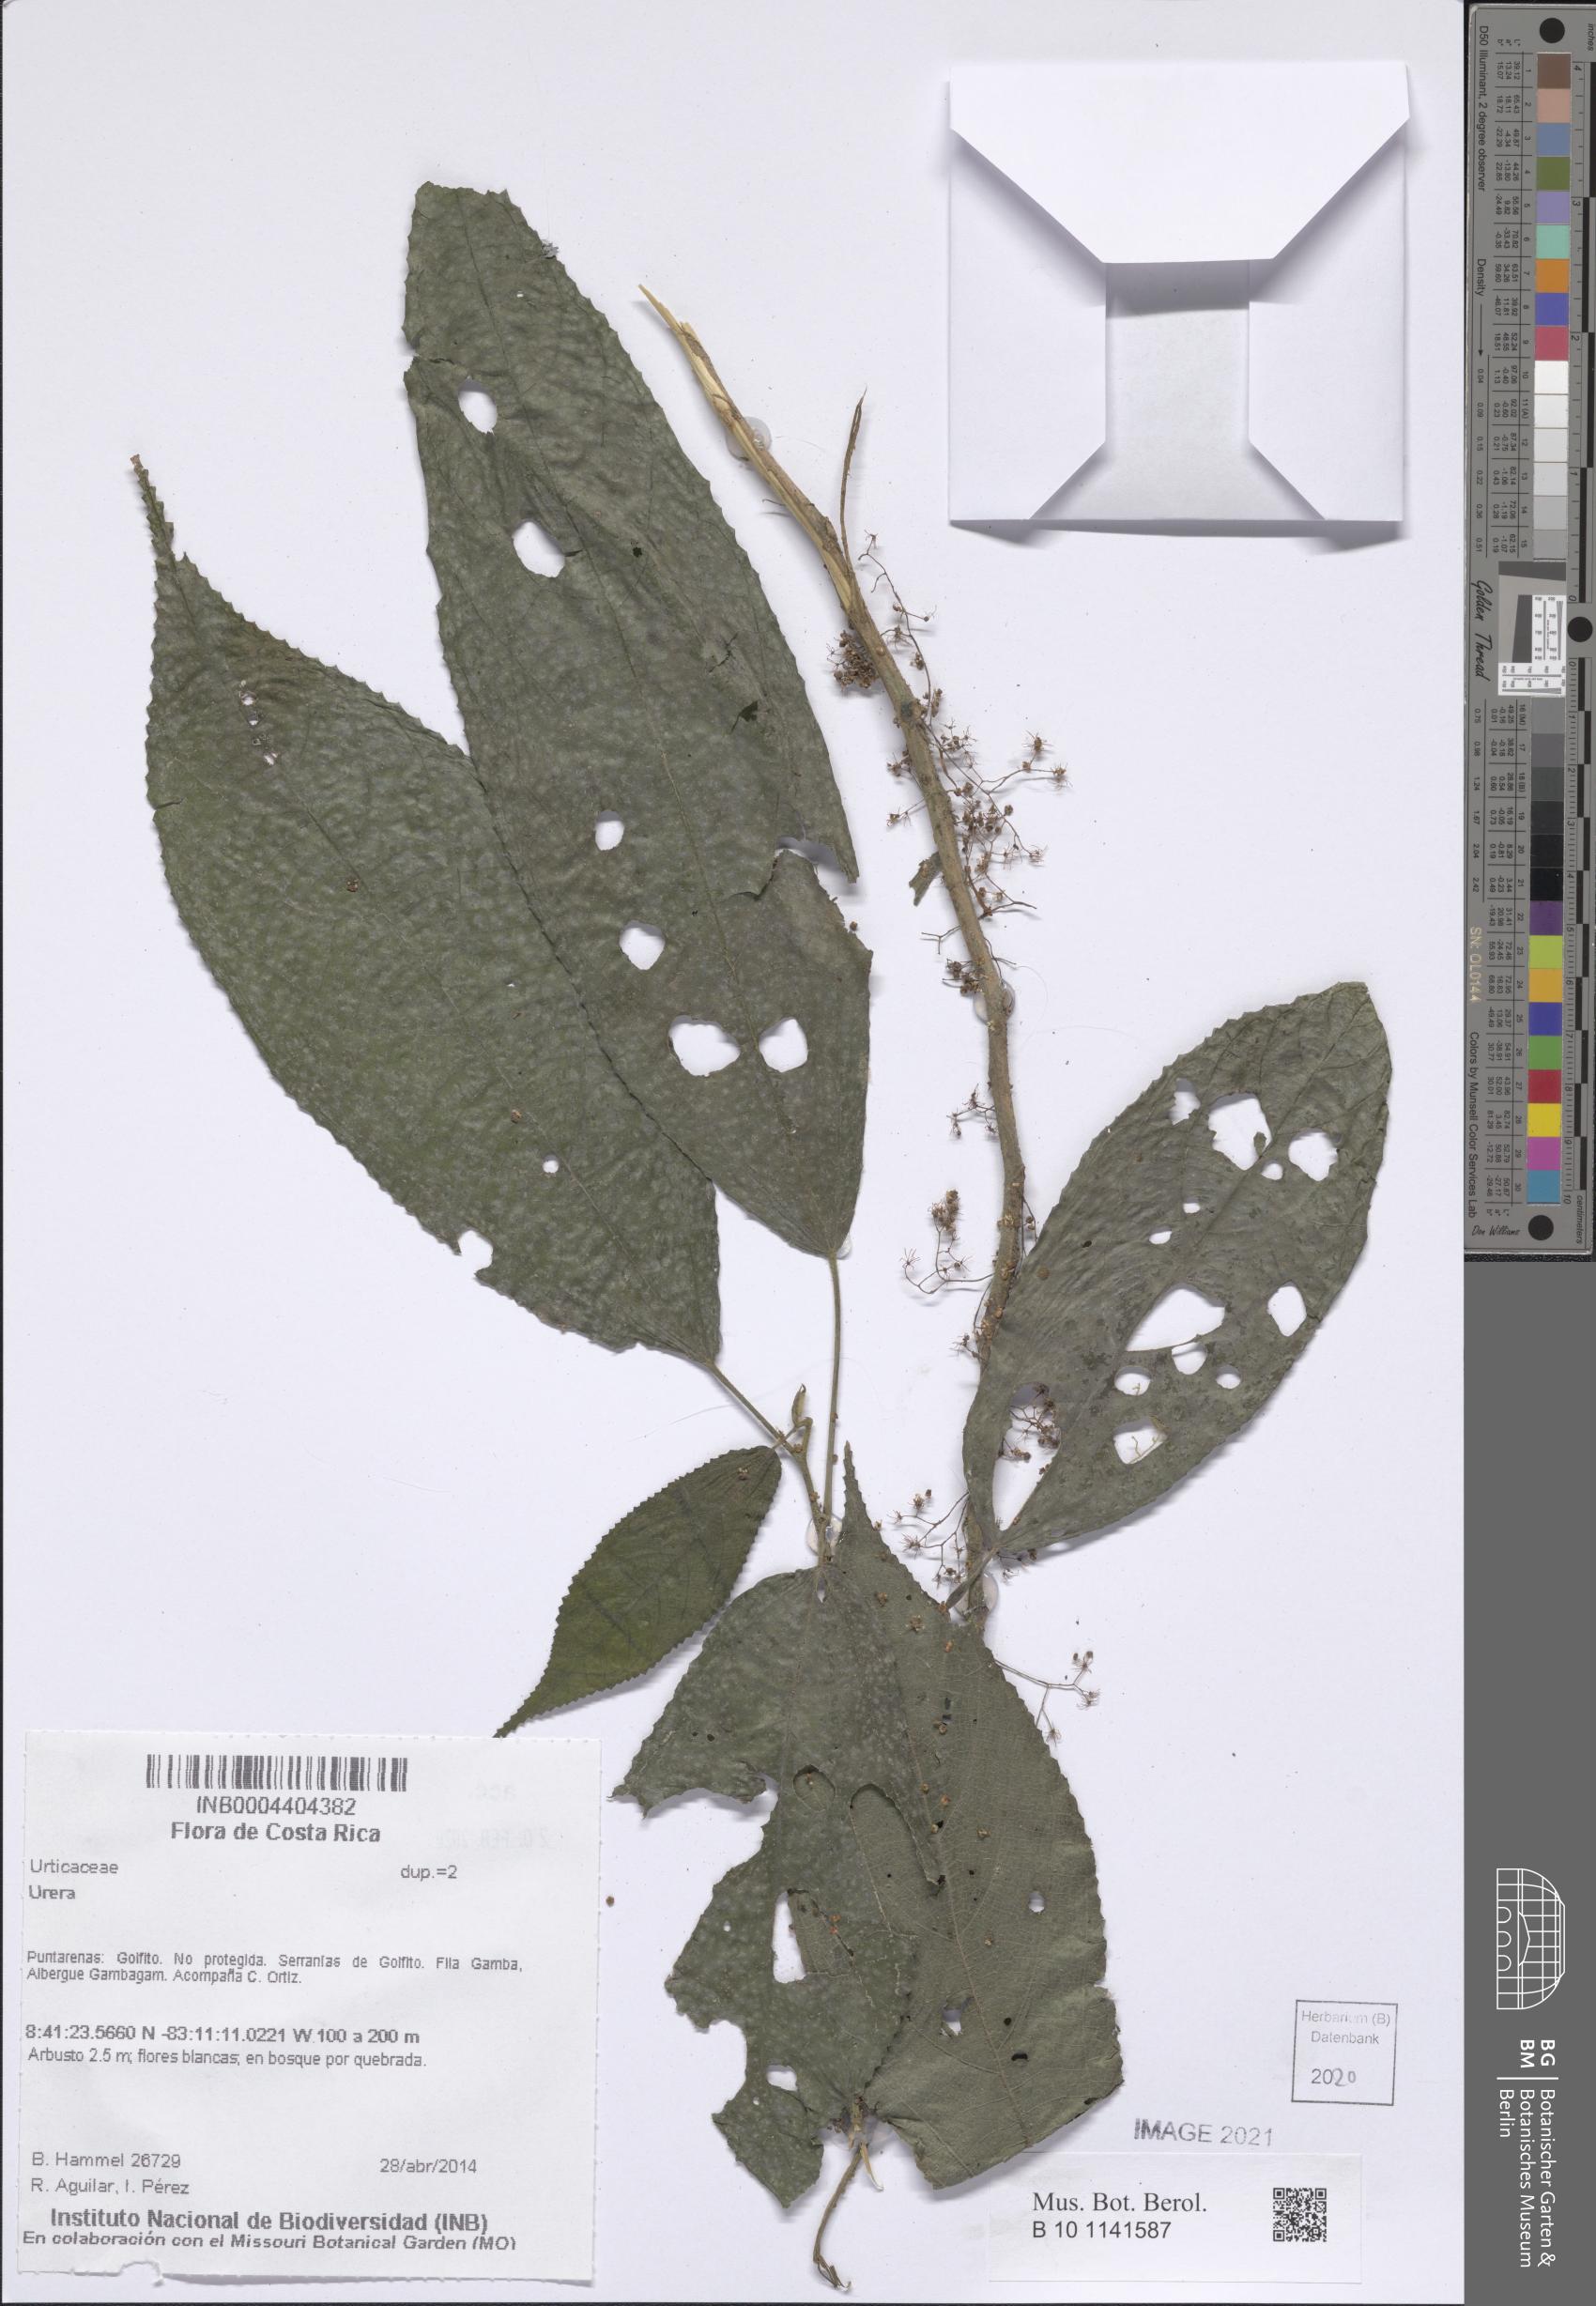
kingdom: Plantae
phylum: Tracheophyta
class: Magnoliopsida
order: Rosales
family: Urticaceae
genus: Urera
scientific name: Urera
